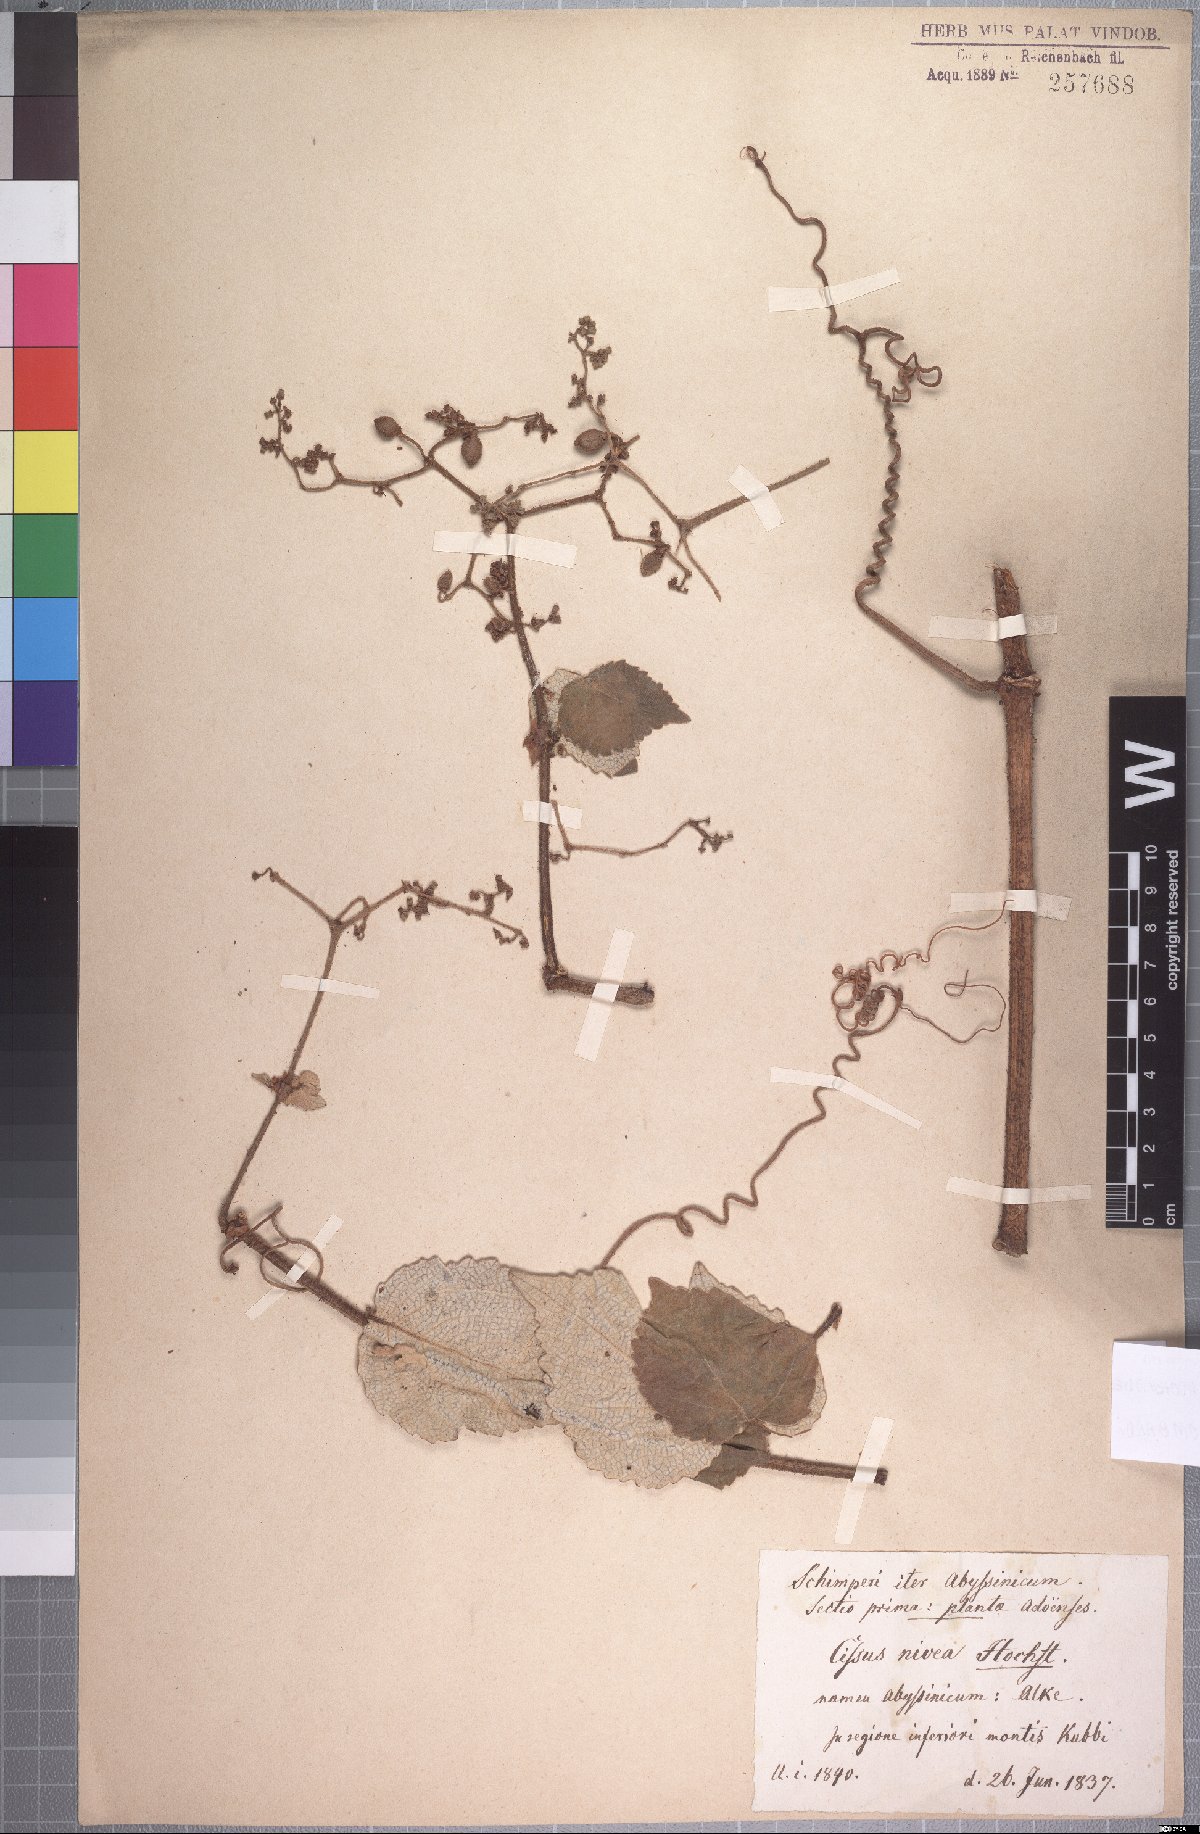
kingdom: Plantae
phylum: Tracheophyta
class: Magnoliopsida
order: Vitales
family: Vitaceae
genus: Cyphostemma
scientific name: Cyphostemma niveum
